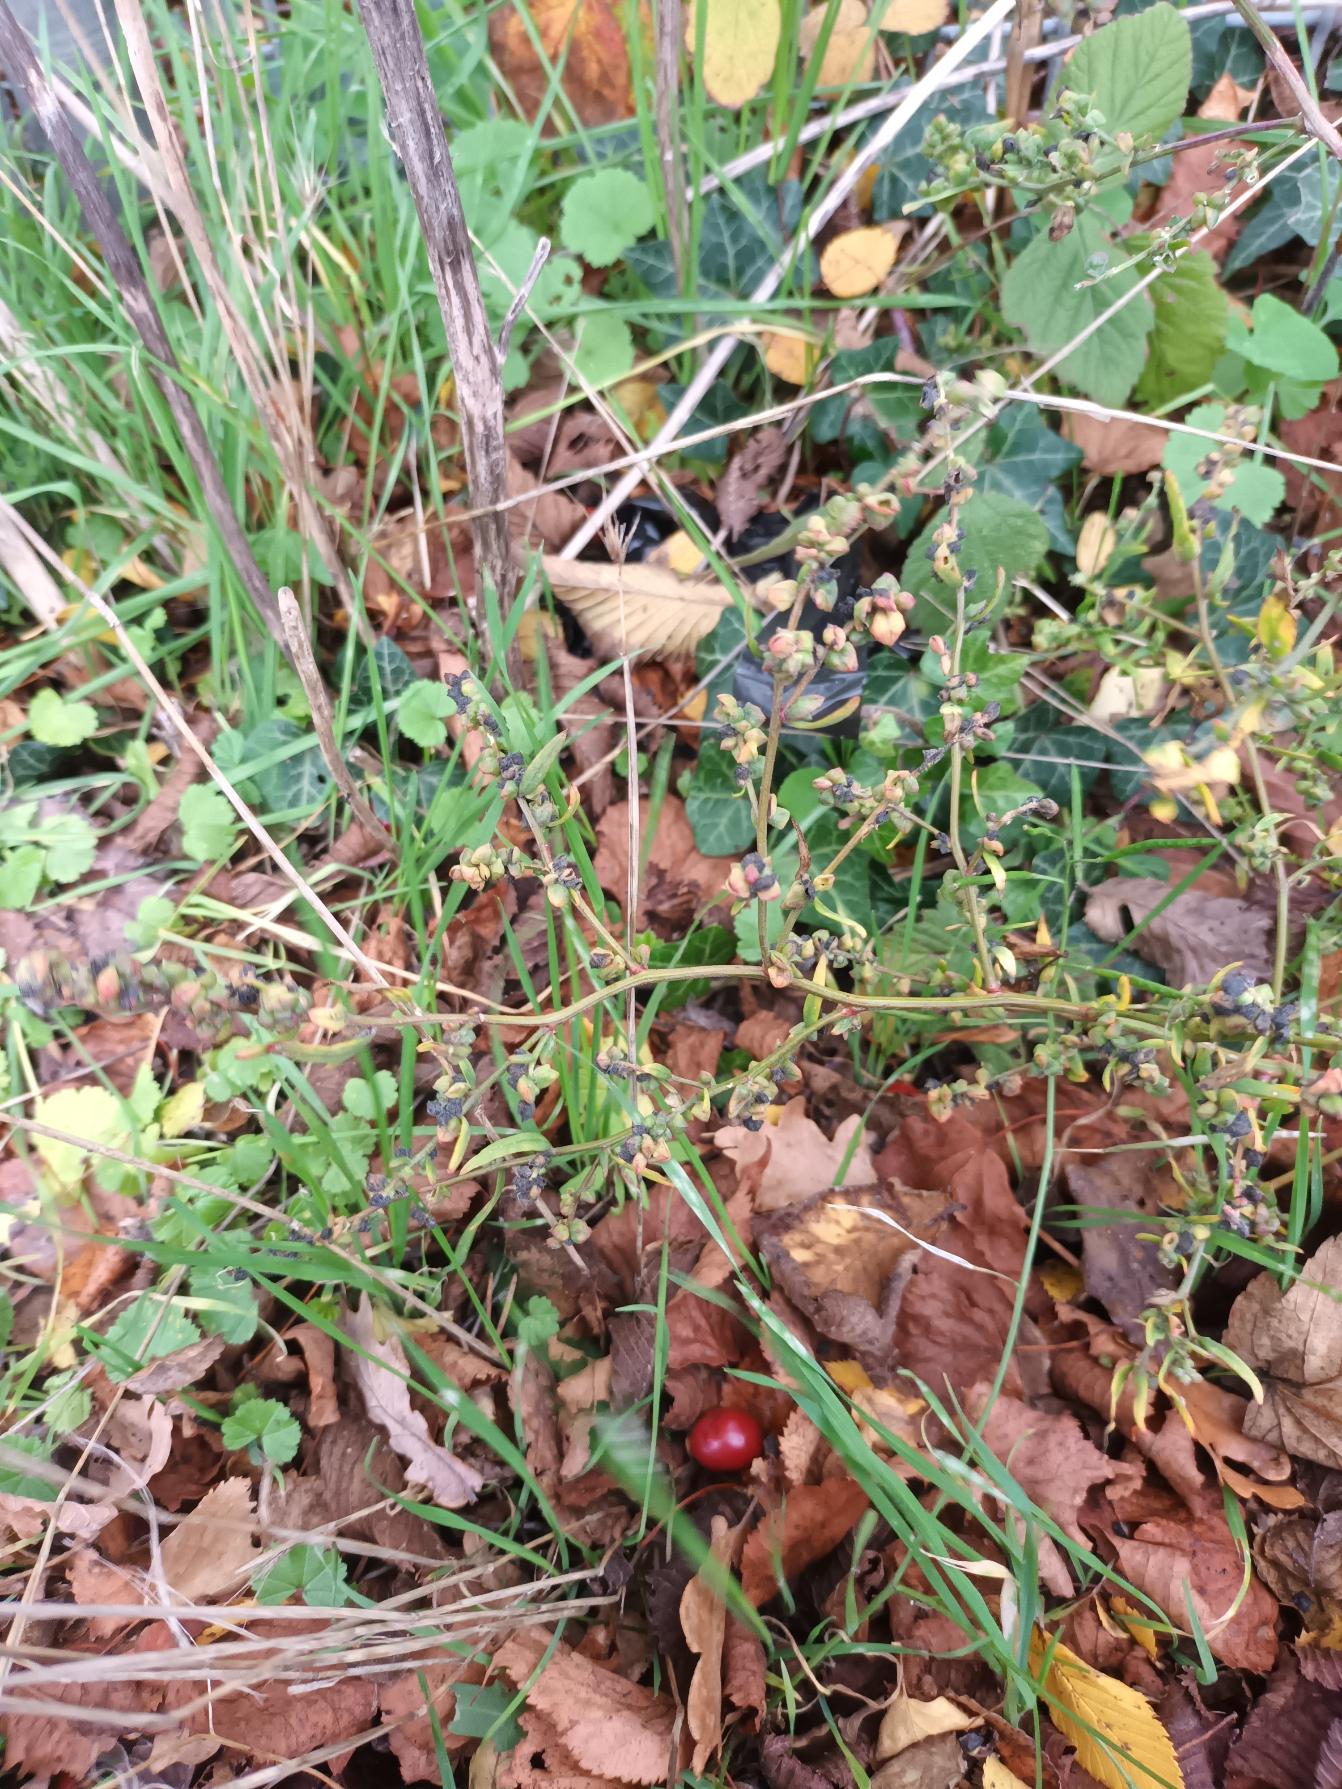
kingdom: Plantae
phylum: Tracheophyta
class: Magnoliopsida
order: Caryophyllales
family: Amaranthaceae
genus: Atriplex
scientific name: Atriplex patula
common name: Svine-mælde
